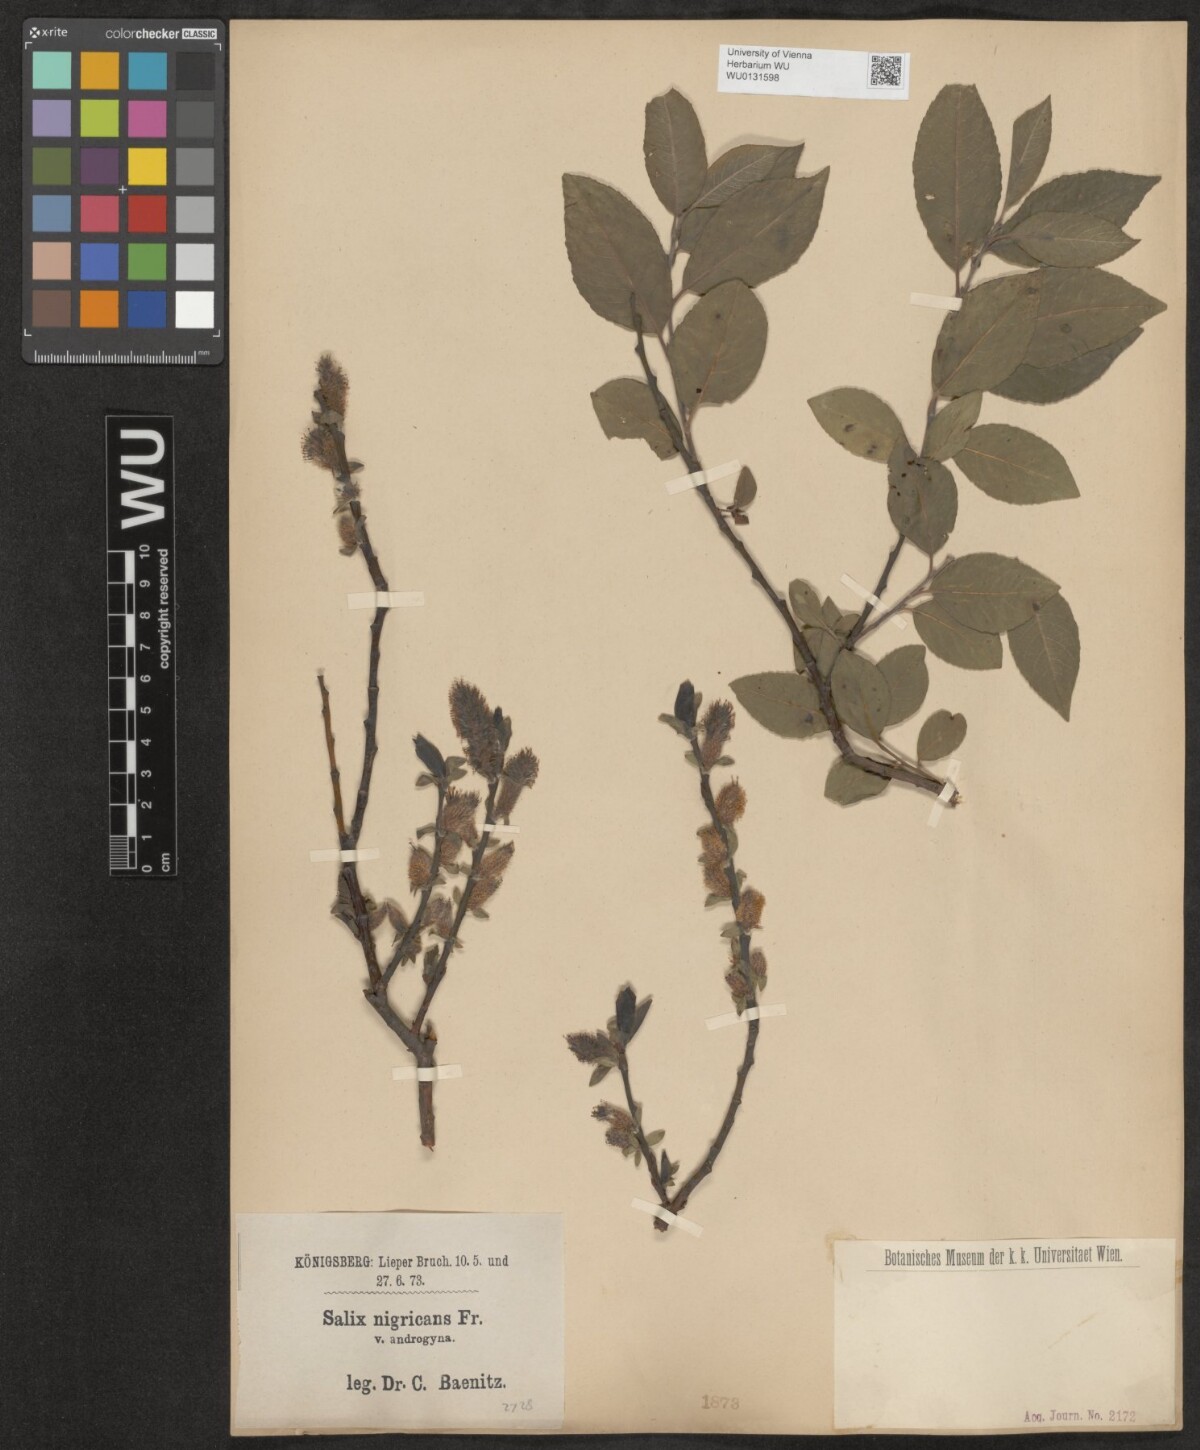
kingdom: Plantae
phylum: Tracheophyta
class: Magnoliopsida
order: Malpighiales
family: Salicaceae
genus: Salix
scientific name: Salix myrsinifolia
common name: Dark-leaved willow
